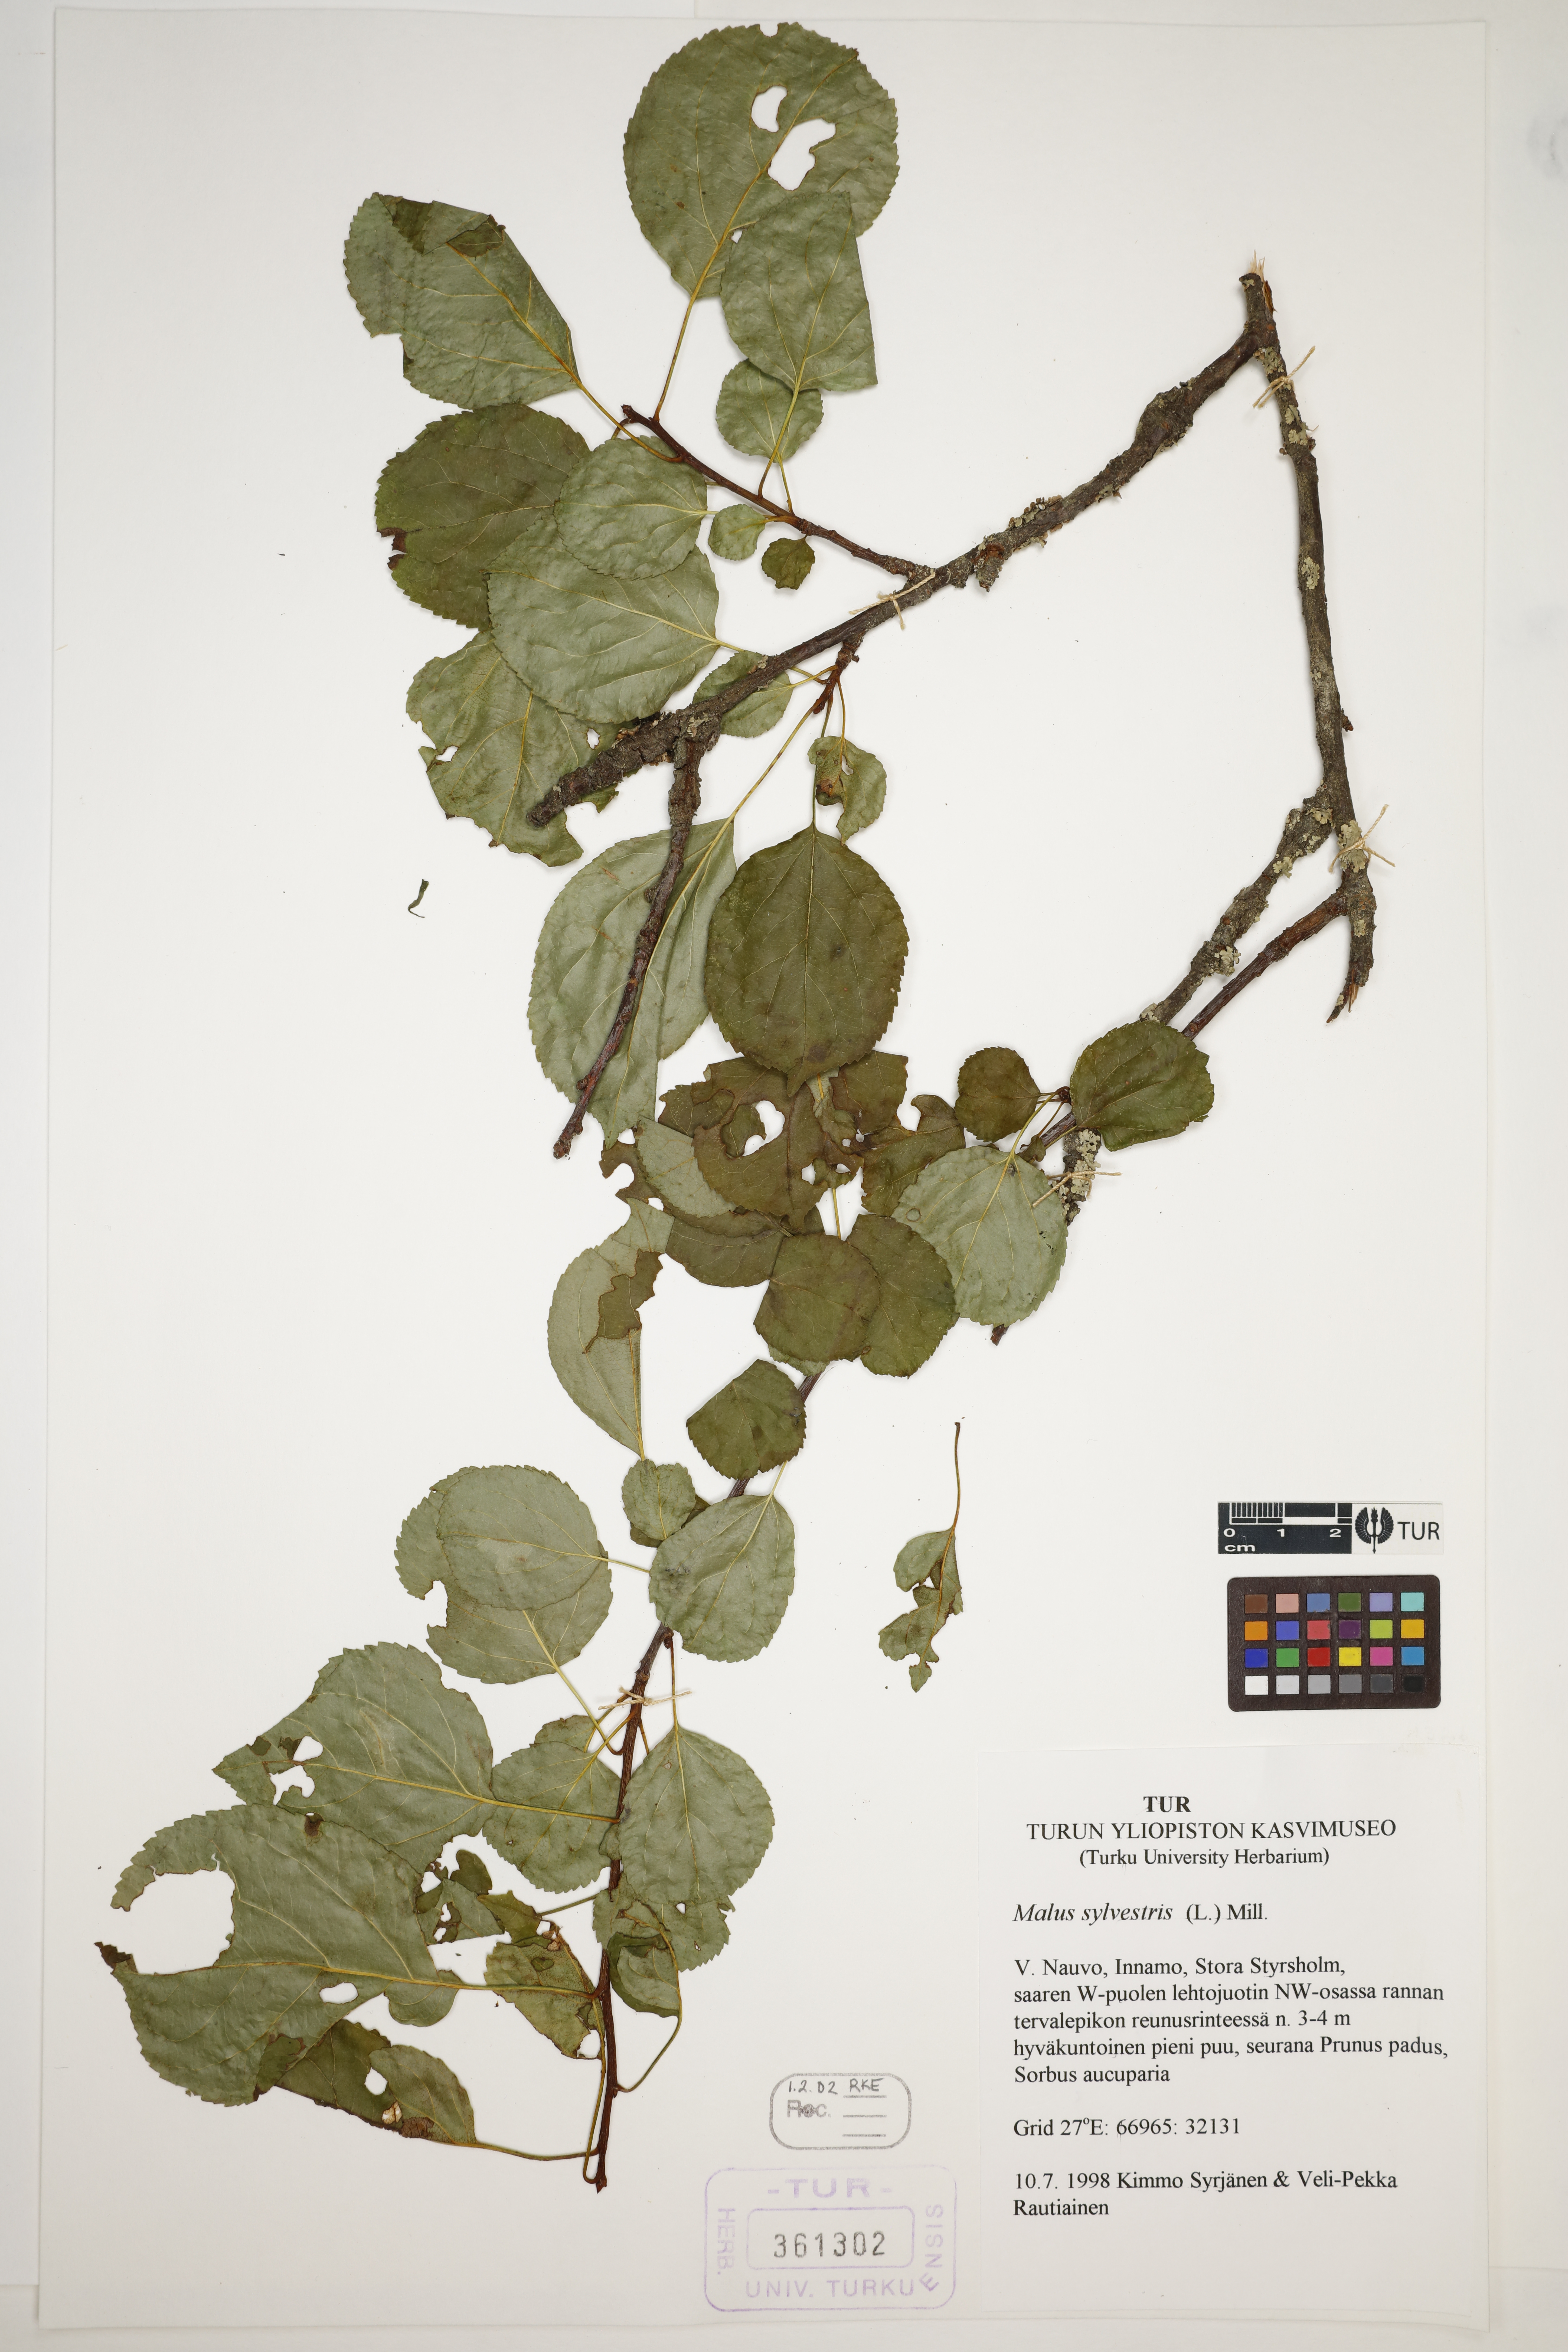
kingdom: Plantae
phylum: Tracheophyta
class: Magnoliopsida
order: Rosales
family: Rosaceae
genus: Malus
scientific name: Malus sylvestris
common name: Crab apple
